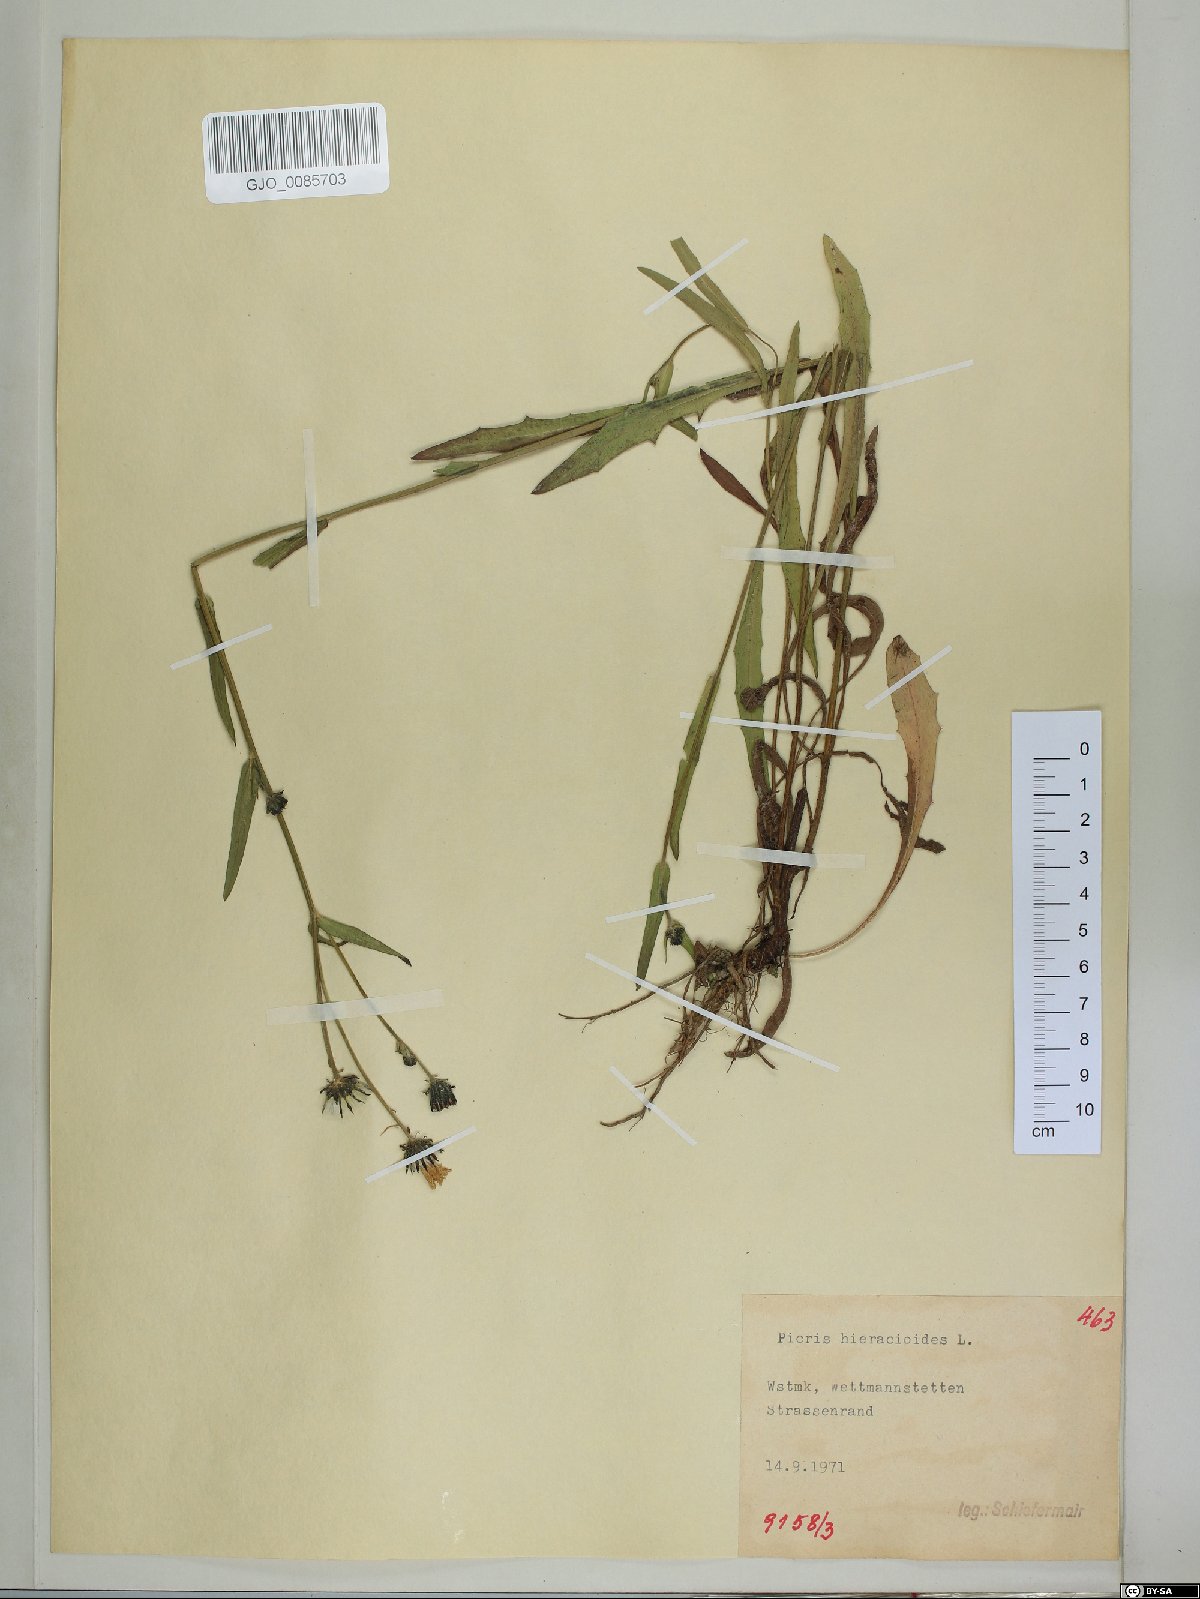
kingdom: Plantae
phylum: Tracheophyta
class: Magnoliopsida
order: Asterales
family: Asteraceae
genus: Picris
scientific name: Picris hieracioides
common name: Hawkweed oxtongue
